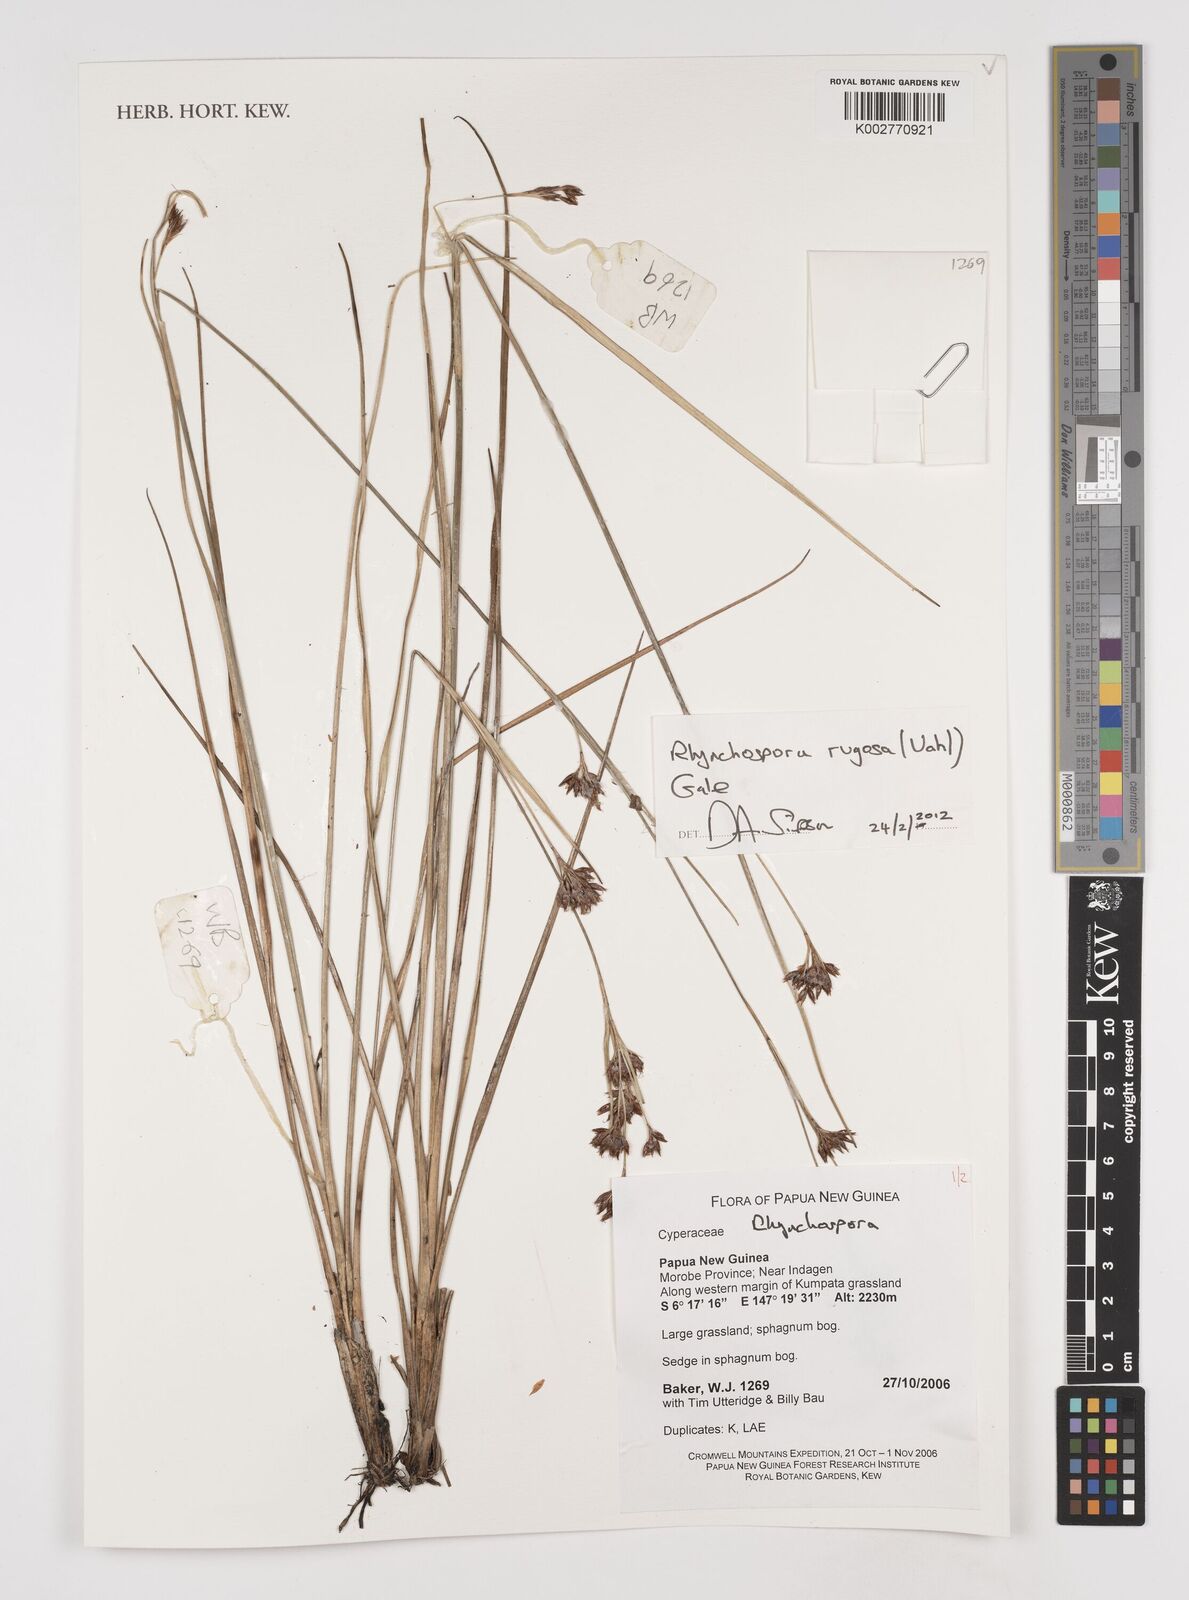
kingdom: Plantae
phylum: Tracheophyta
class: Liliopsida
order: Poales
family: Cyperaceae
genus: Rhynchospora
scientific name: Rhynchospora rugosa
